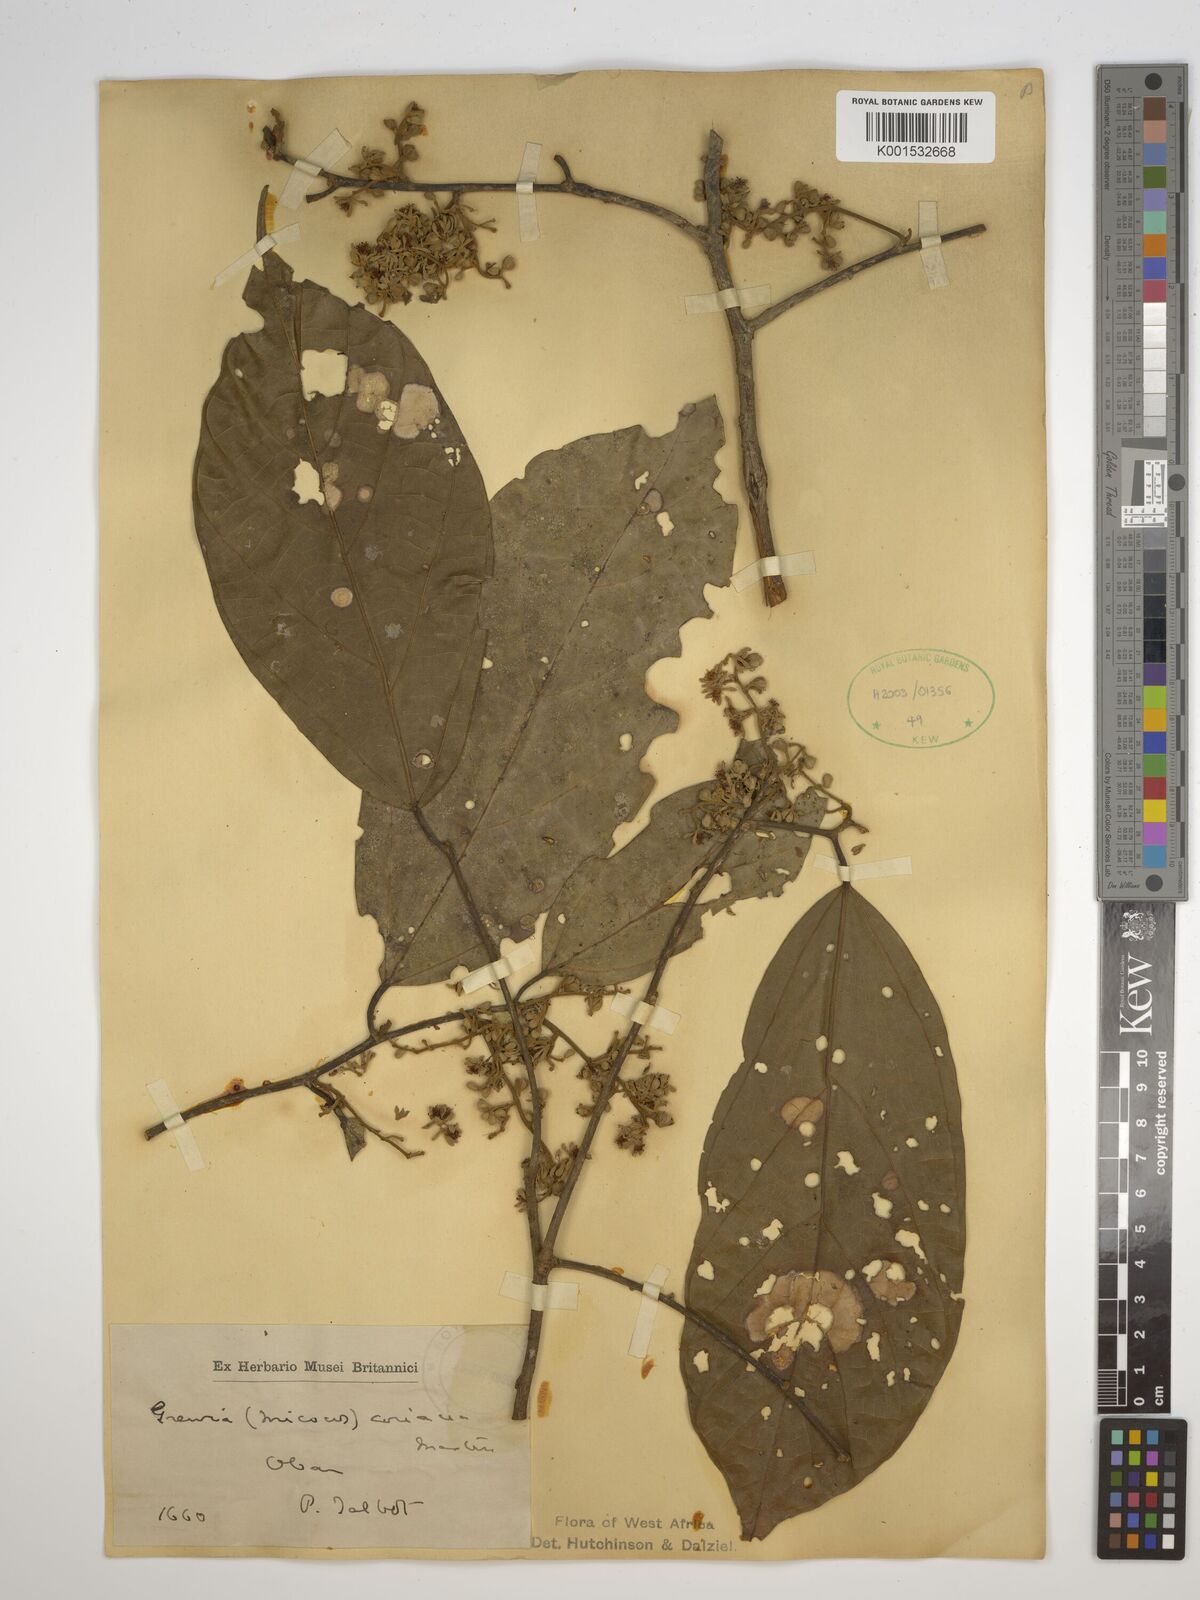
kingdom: Plantae
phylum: Tracheophyta
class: Magnoliopsida
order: Malvales
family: Malvaceae
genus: Microcos
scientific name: Microcos coriacea
